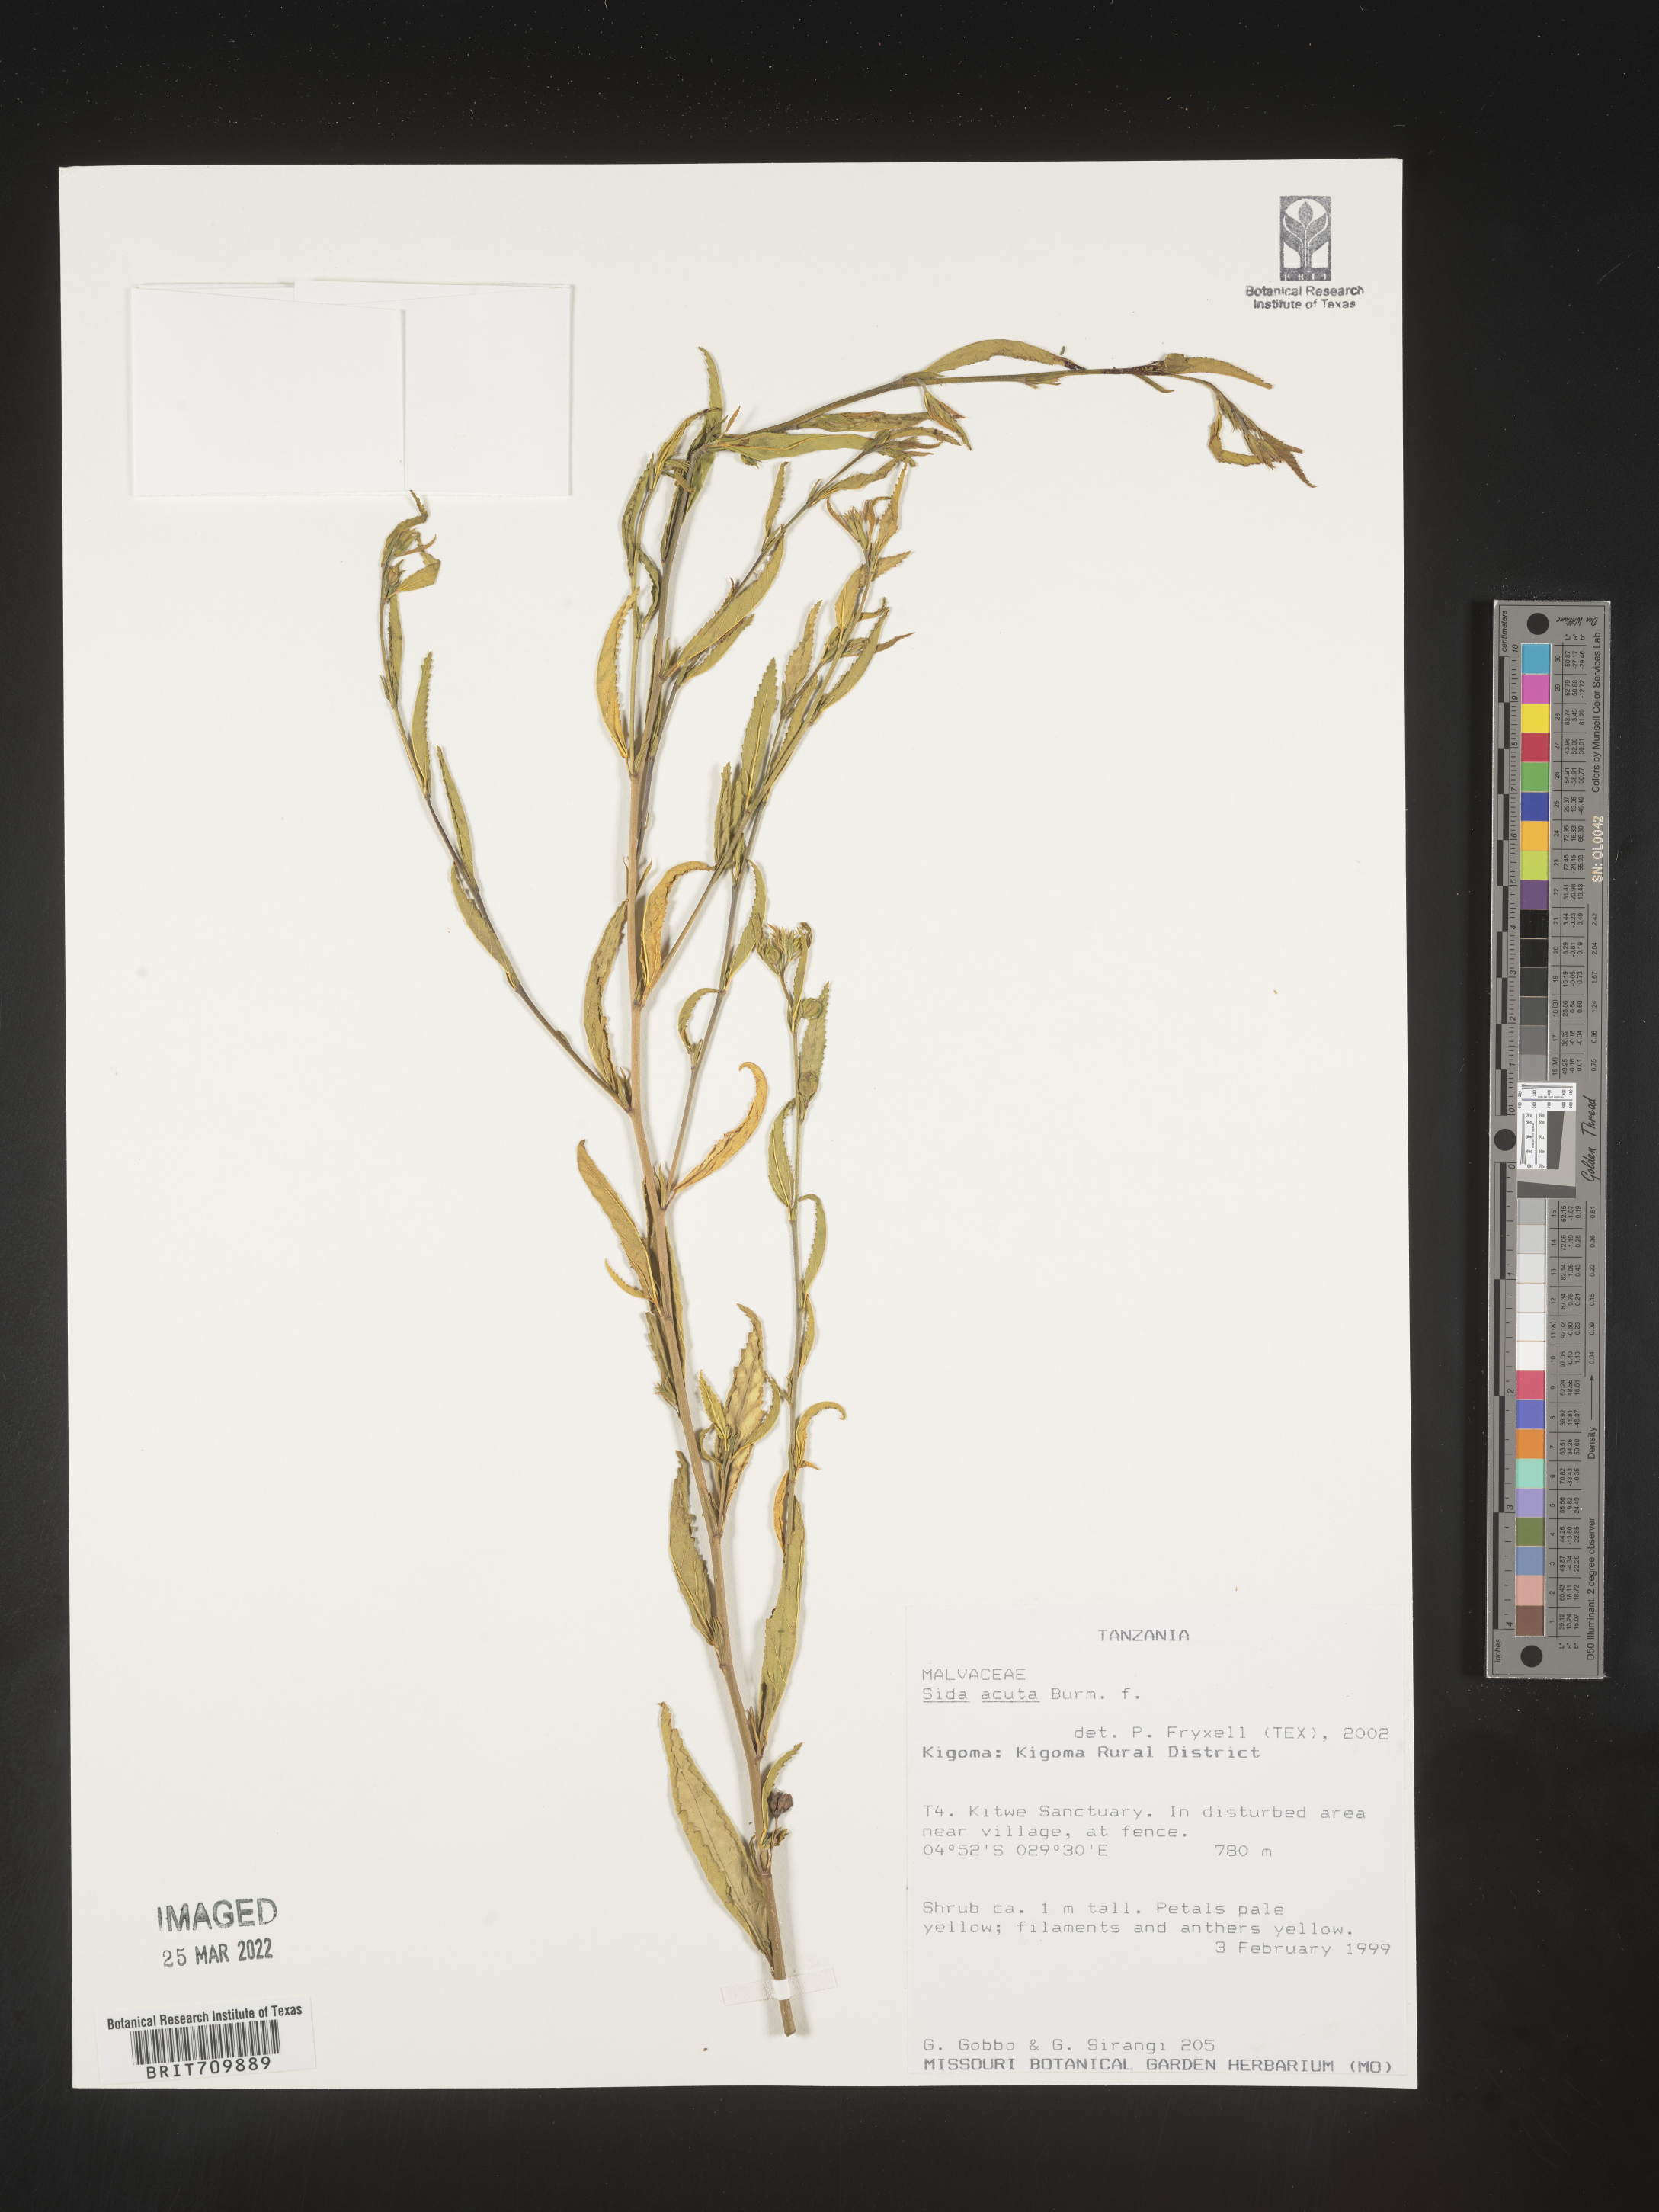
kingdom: Plantae
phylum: Tracheophyta
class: Magnoliopsida
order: Malvales
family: Malvaceae
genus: Sida
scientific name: Sida
